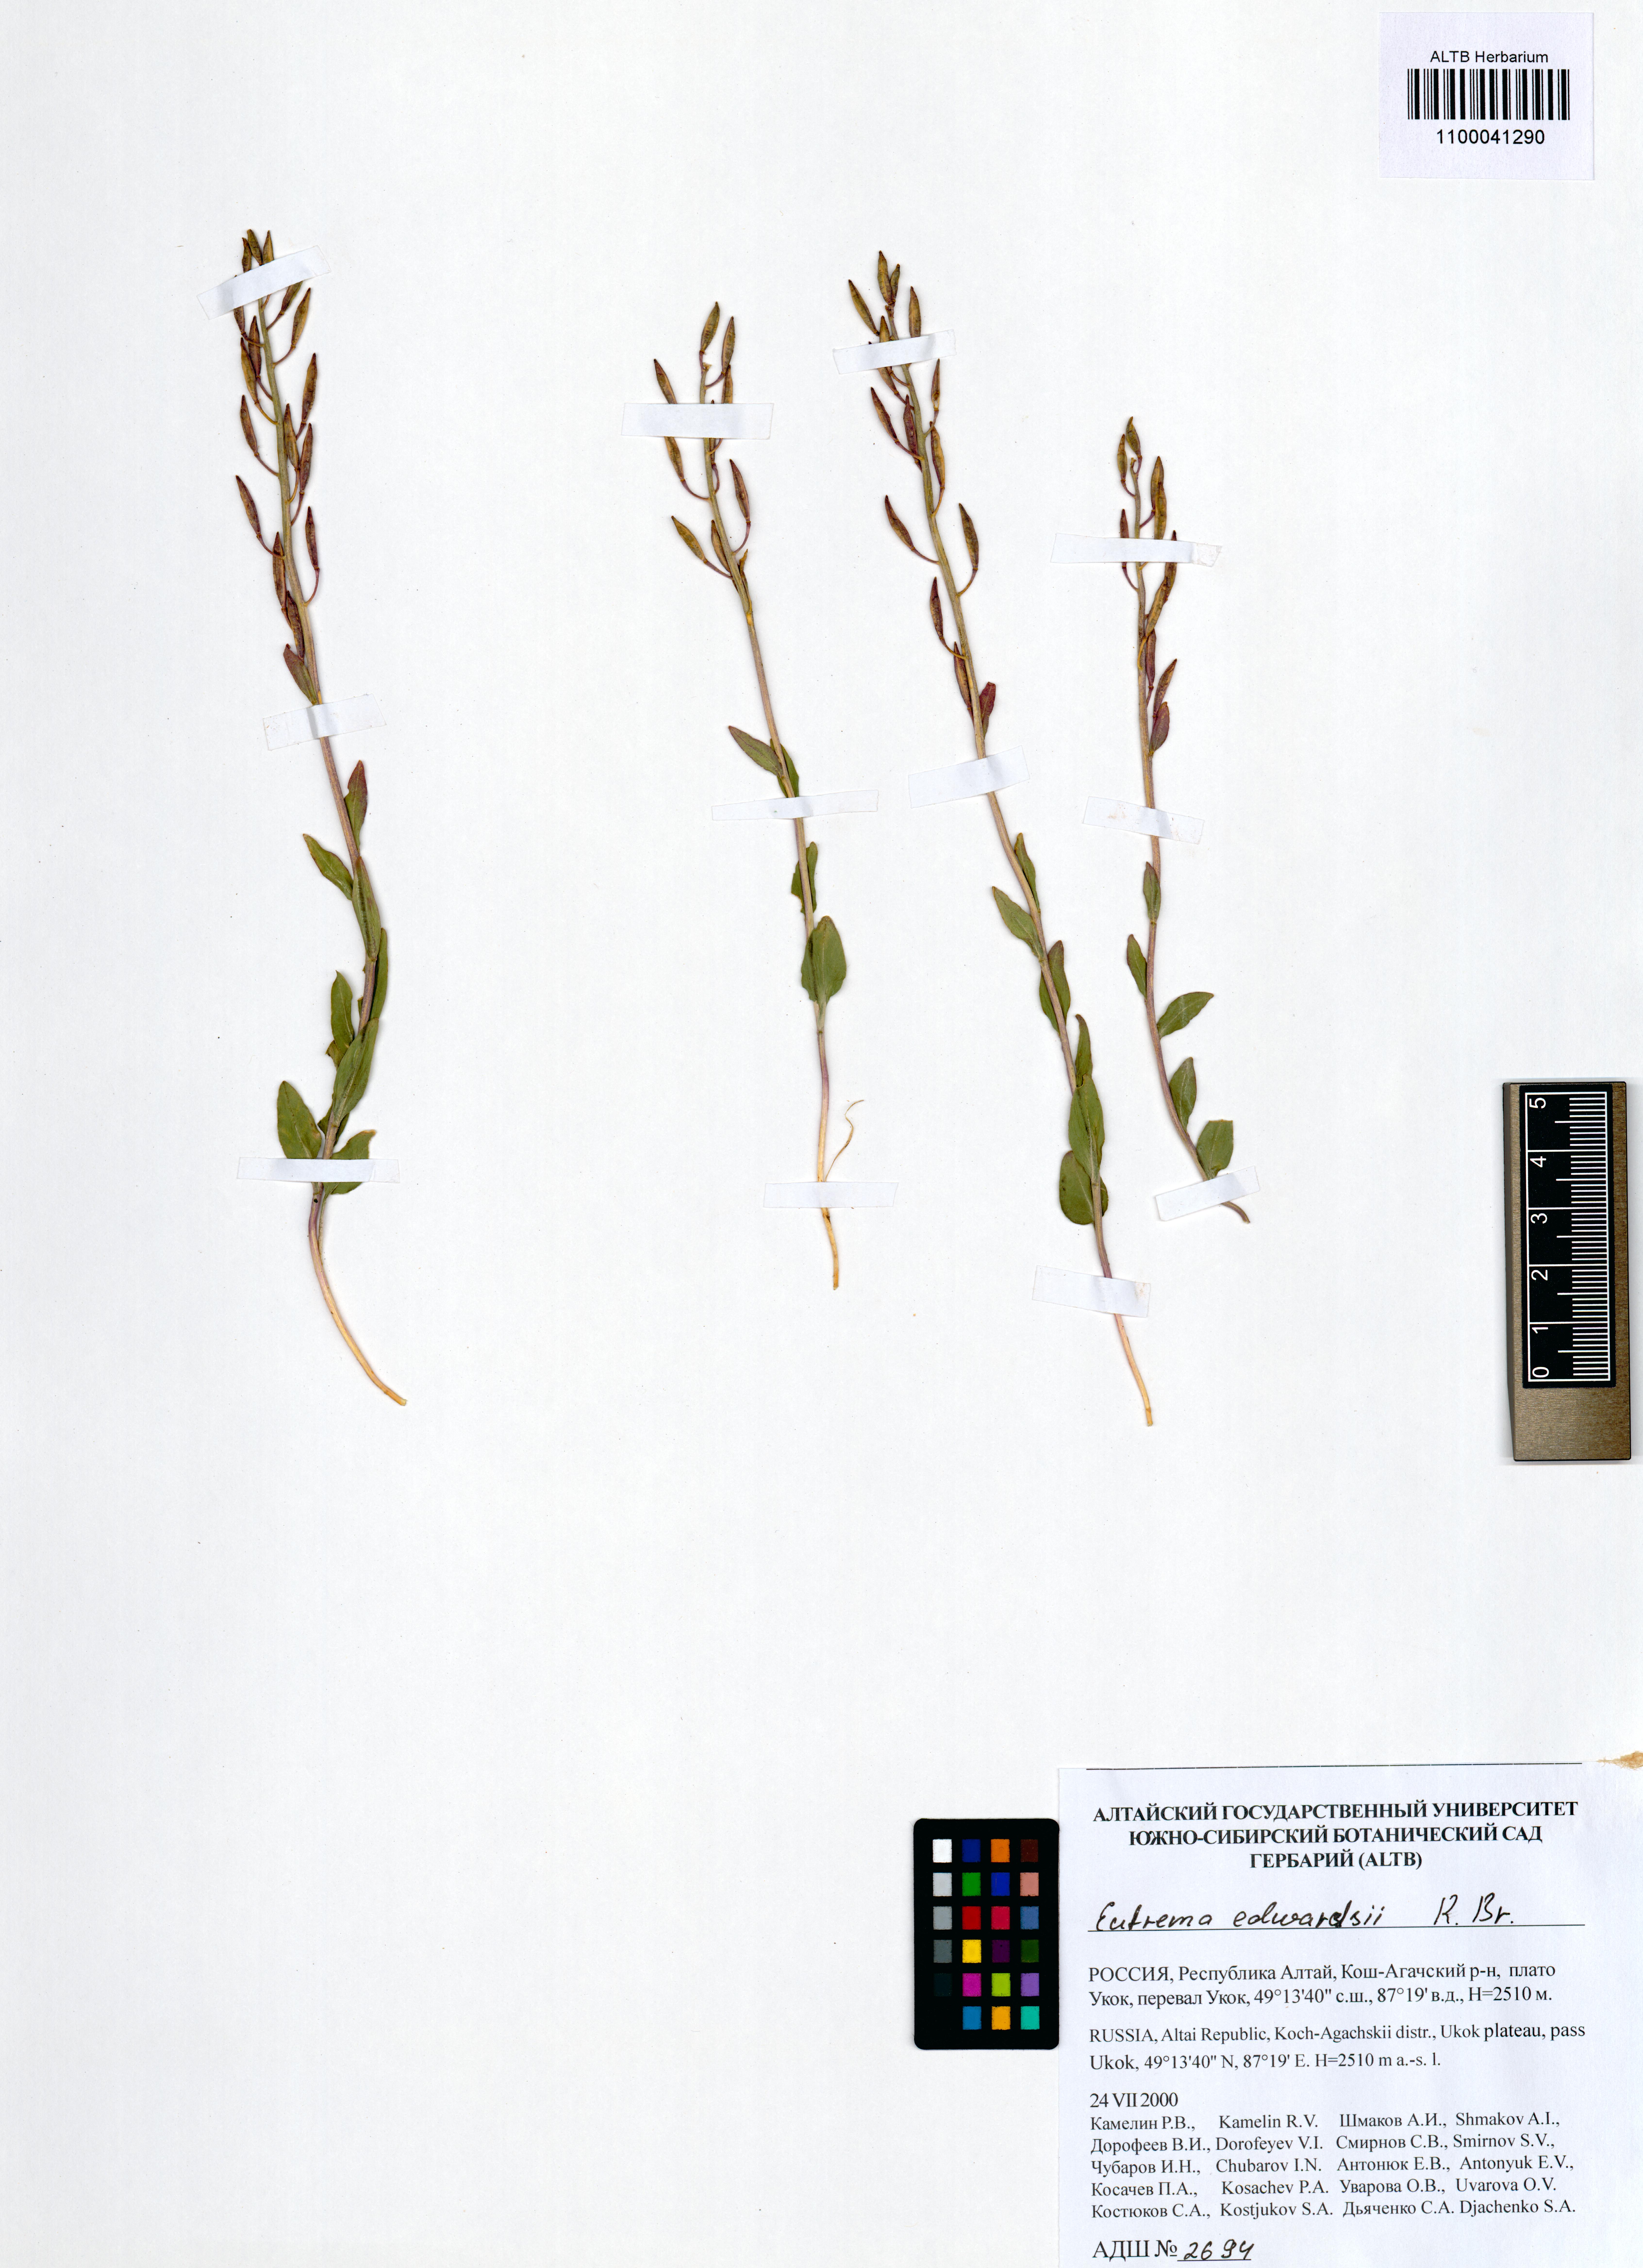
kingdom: Plantae
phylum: Tracheophyta
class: Magnoliopsida
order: Brassicales
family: Brassicaceae
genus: Eutrema
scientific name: Eutrema edwardsii
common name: Penland alpine fen mustard
